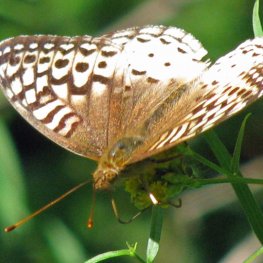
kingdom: Animalia
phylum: Arthropoda
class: Insecta
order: Lepidoptera
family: Nymphalidae
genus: Speyeria
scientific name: Speyeria cybele
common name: Great Spangled Fritillary
